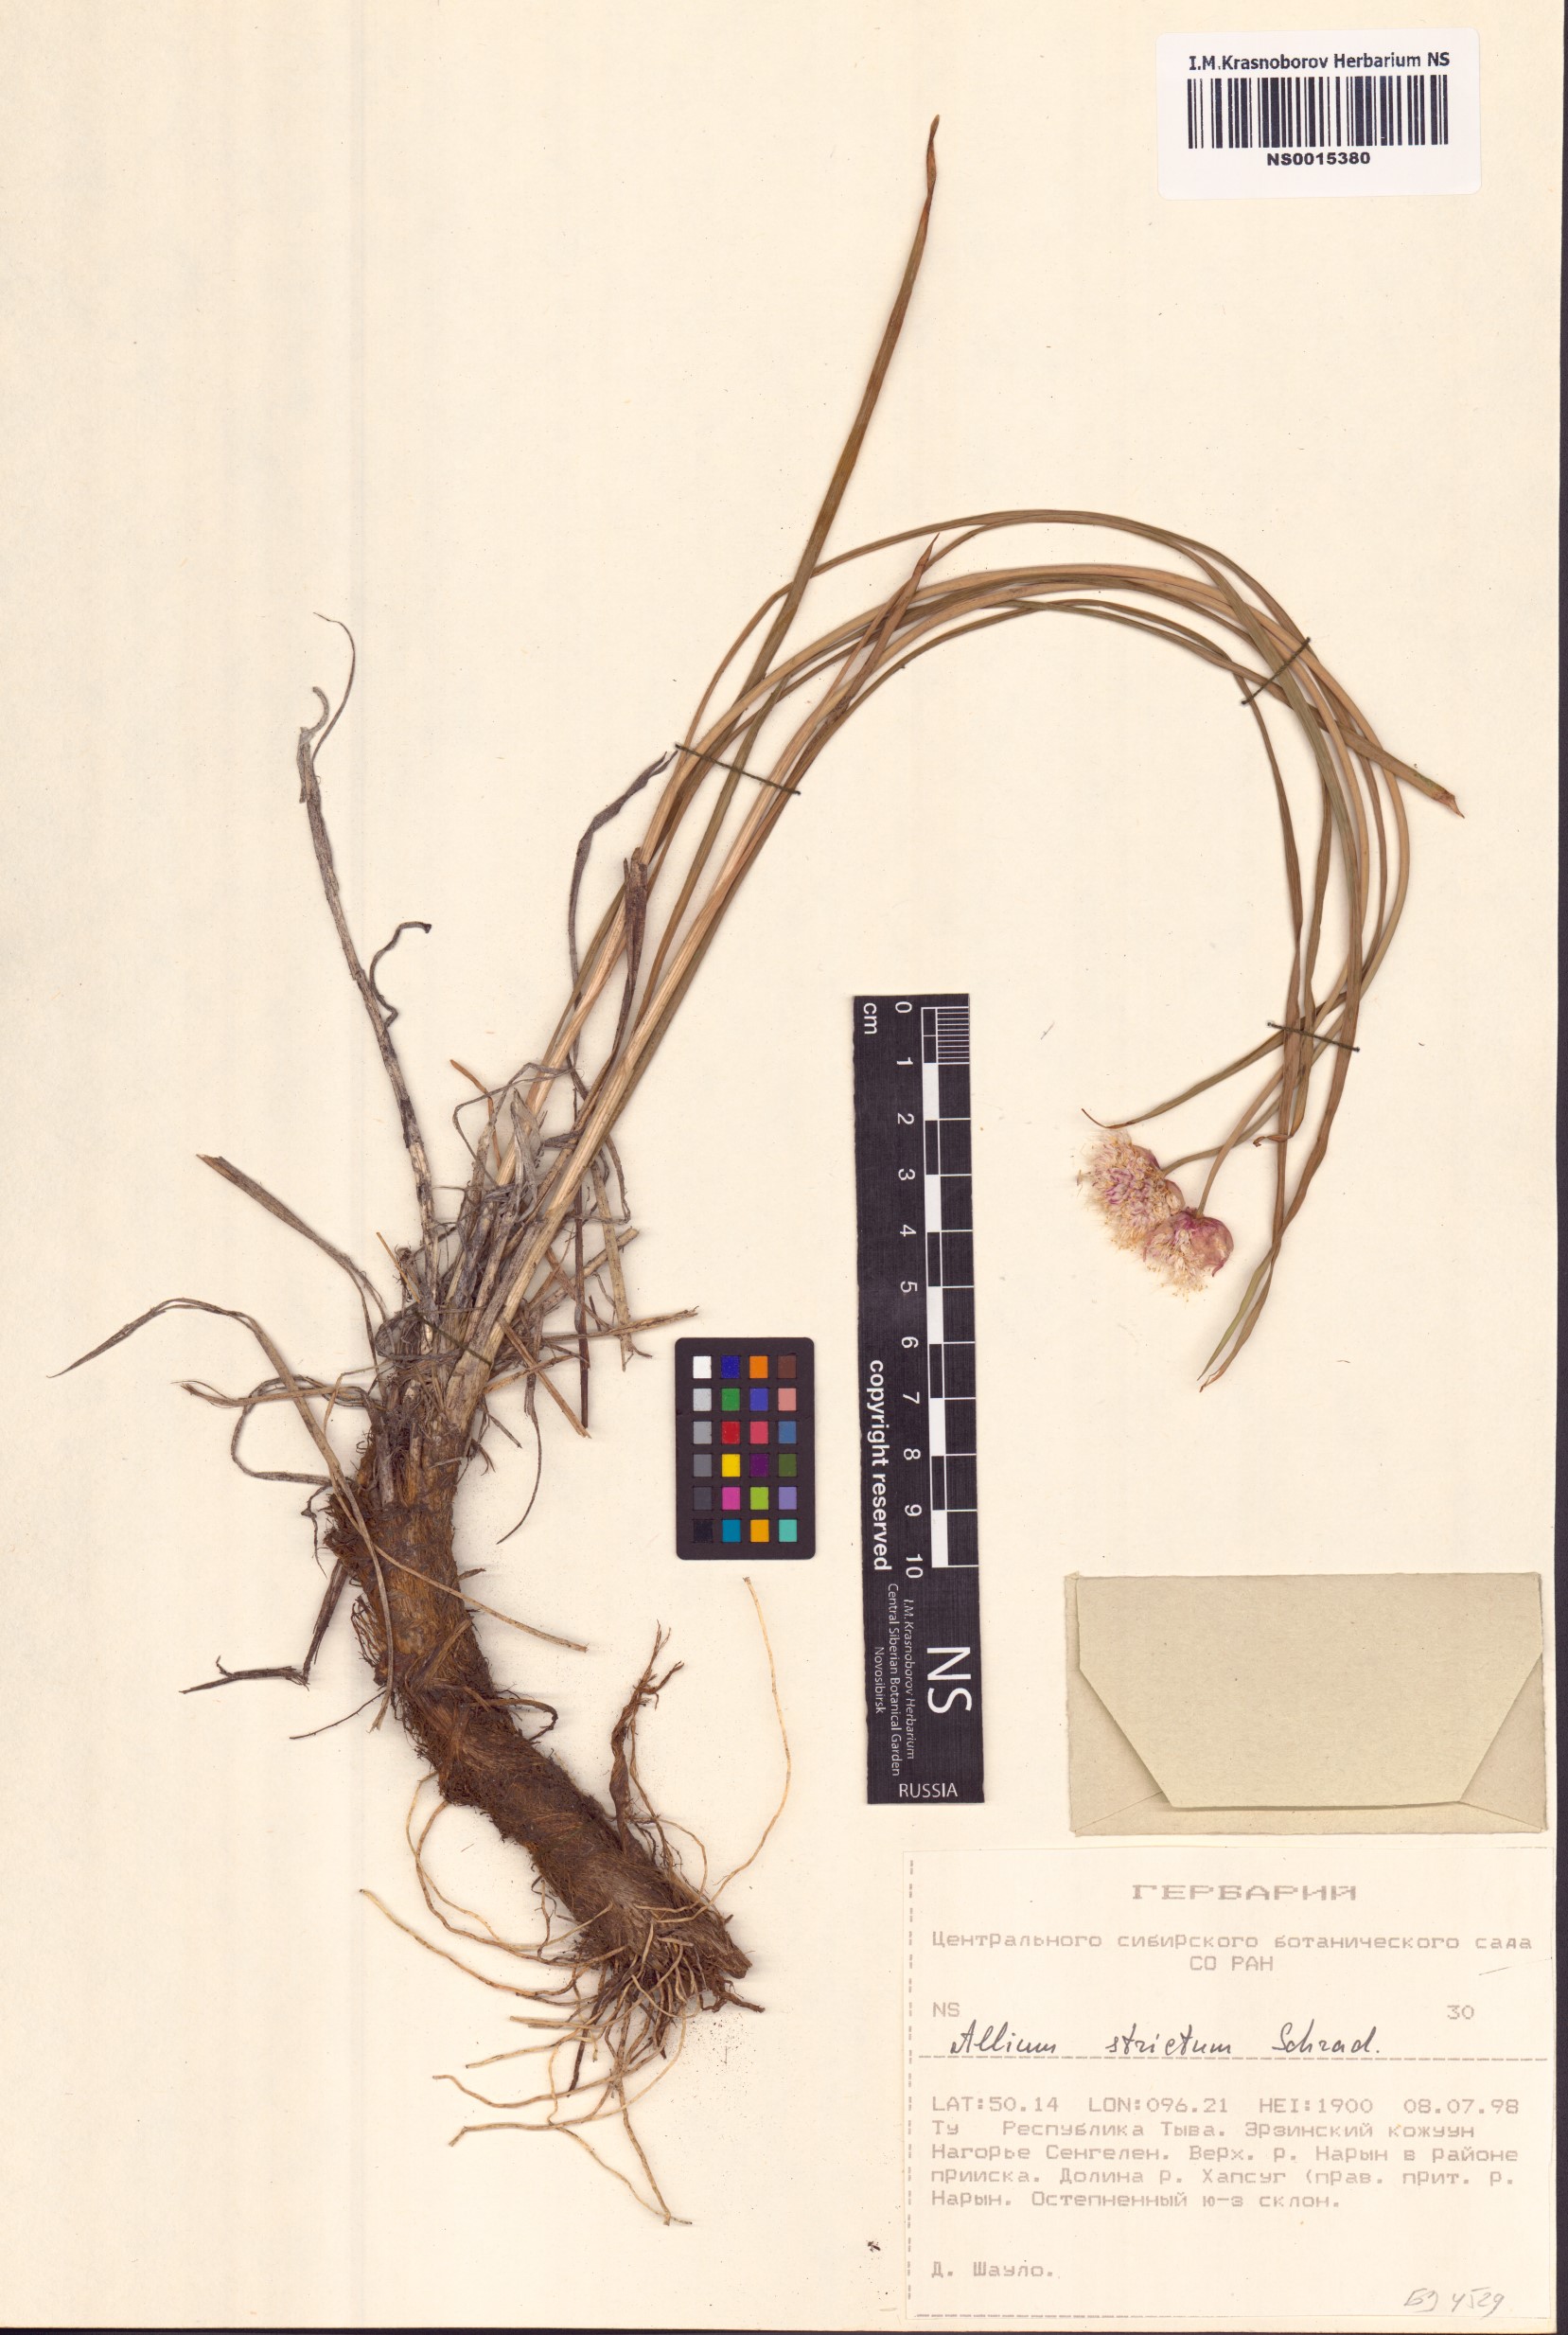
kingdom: Plantae
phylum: Tracheophyta
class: Liliopsida
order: Asparagales
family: Amaryllidaceae
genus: Allium
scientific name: Allium strictum
